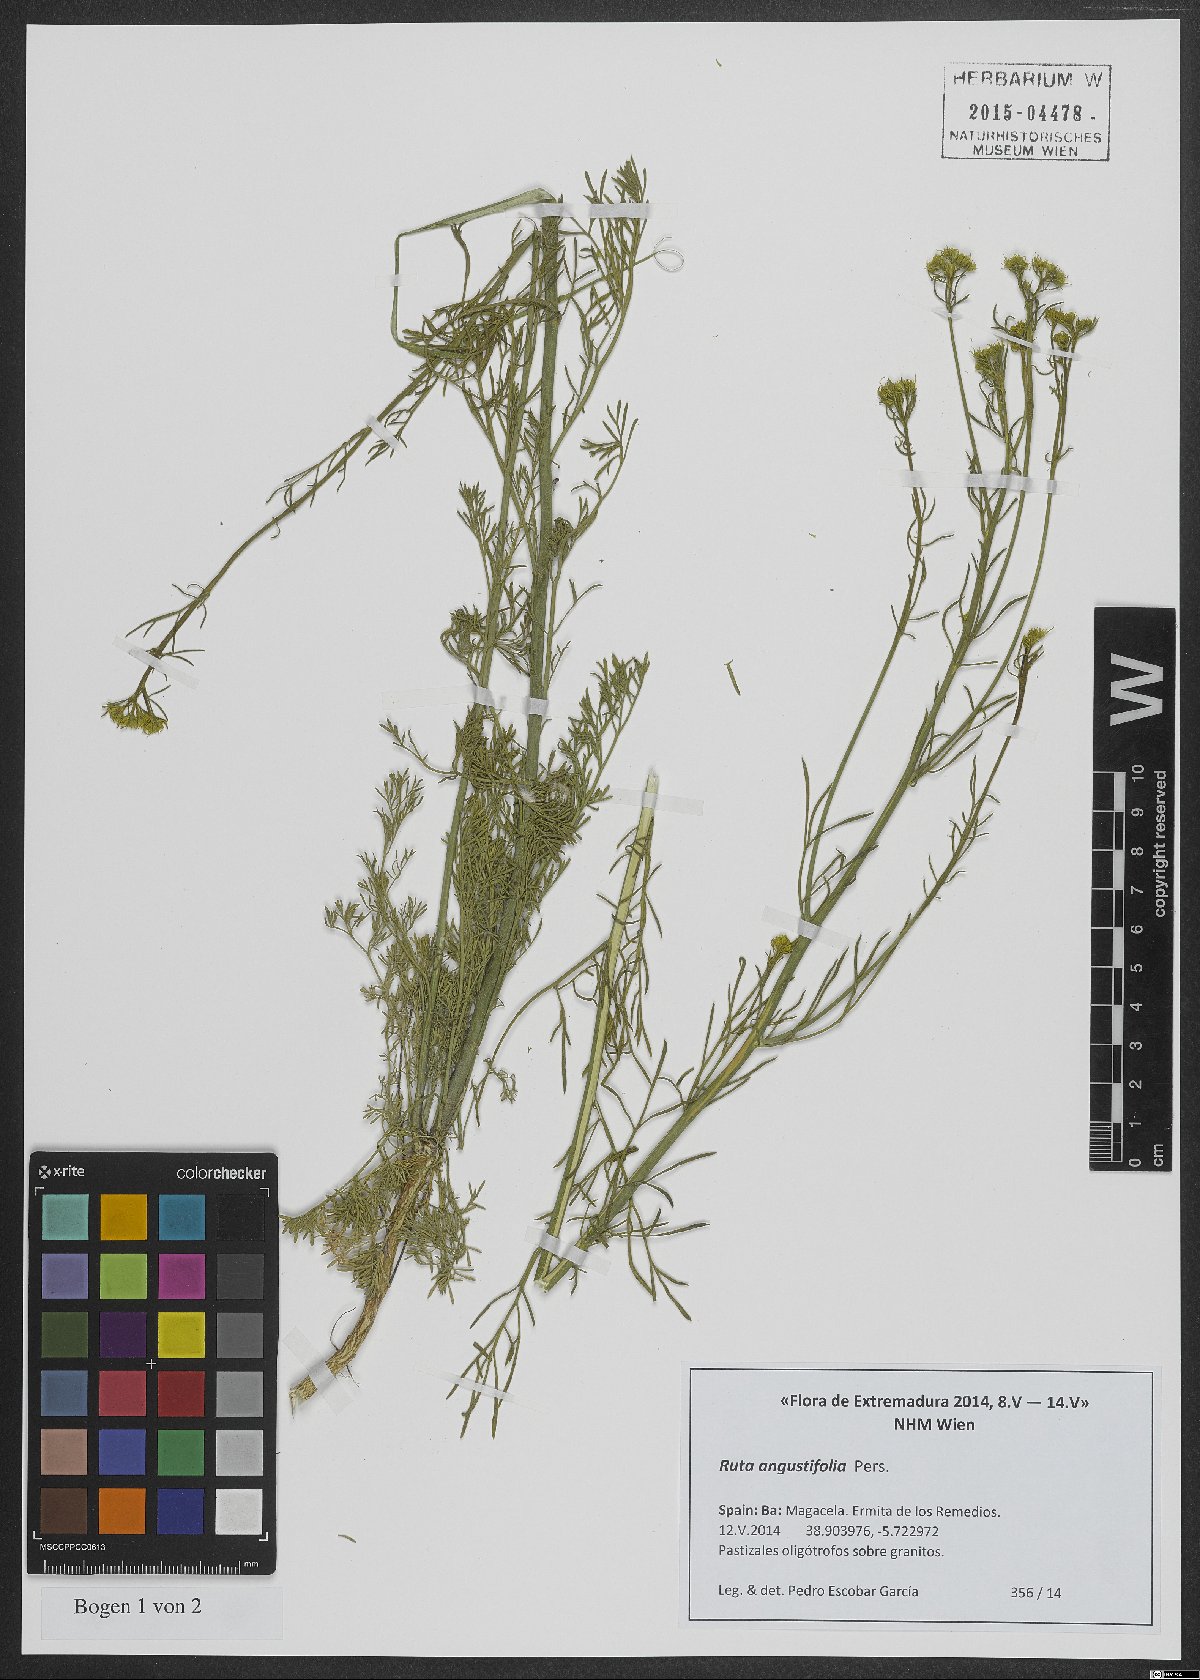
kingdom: Plantae
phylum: Tracheophyta
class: Magnoliopsida
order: Sapindales
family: Rutaceae
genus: Ruta
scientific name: Ruta angustifolia
